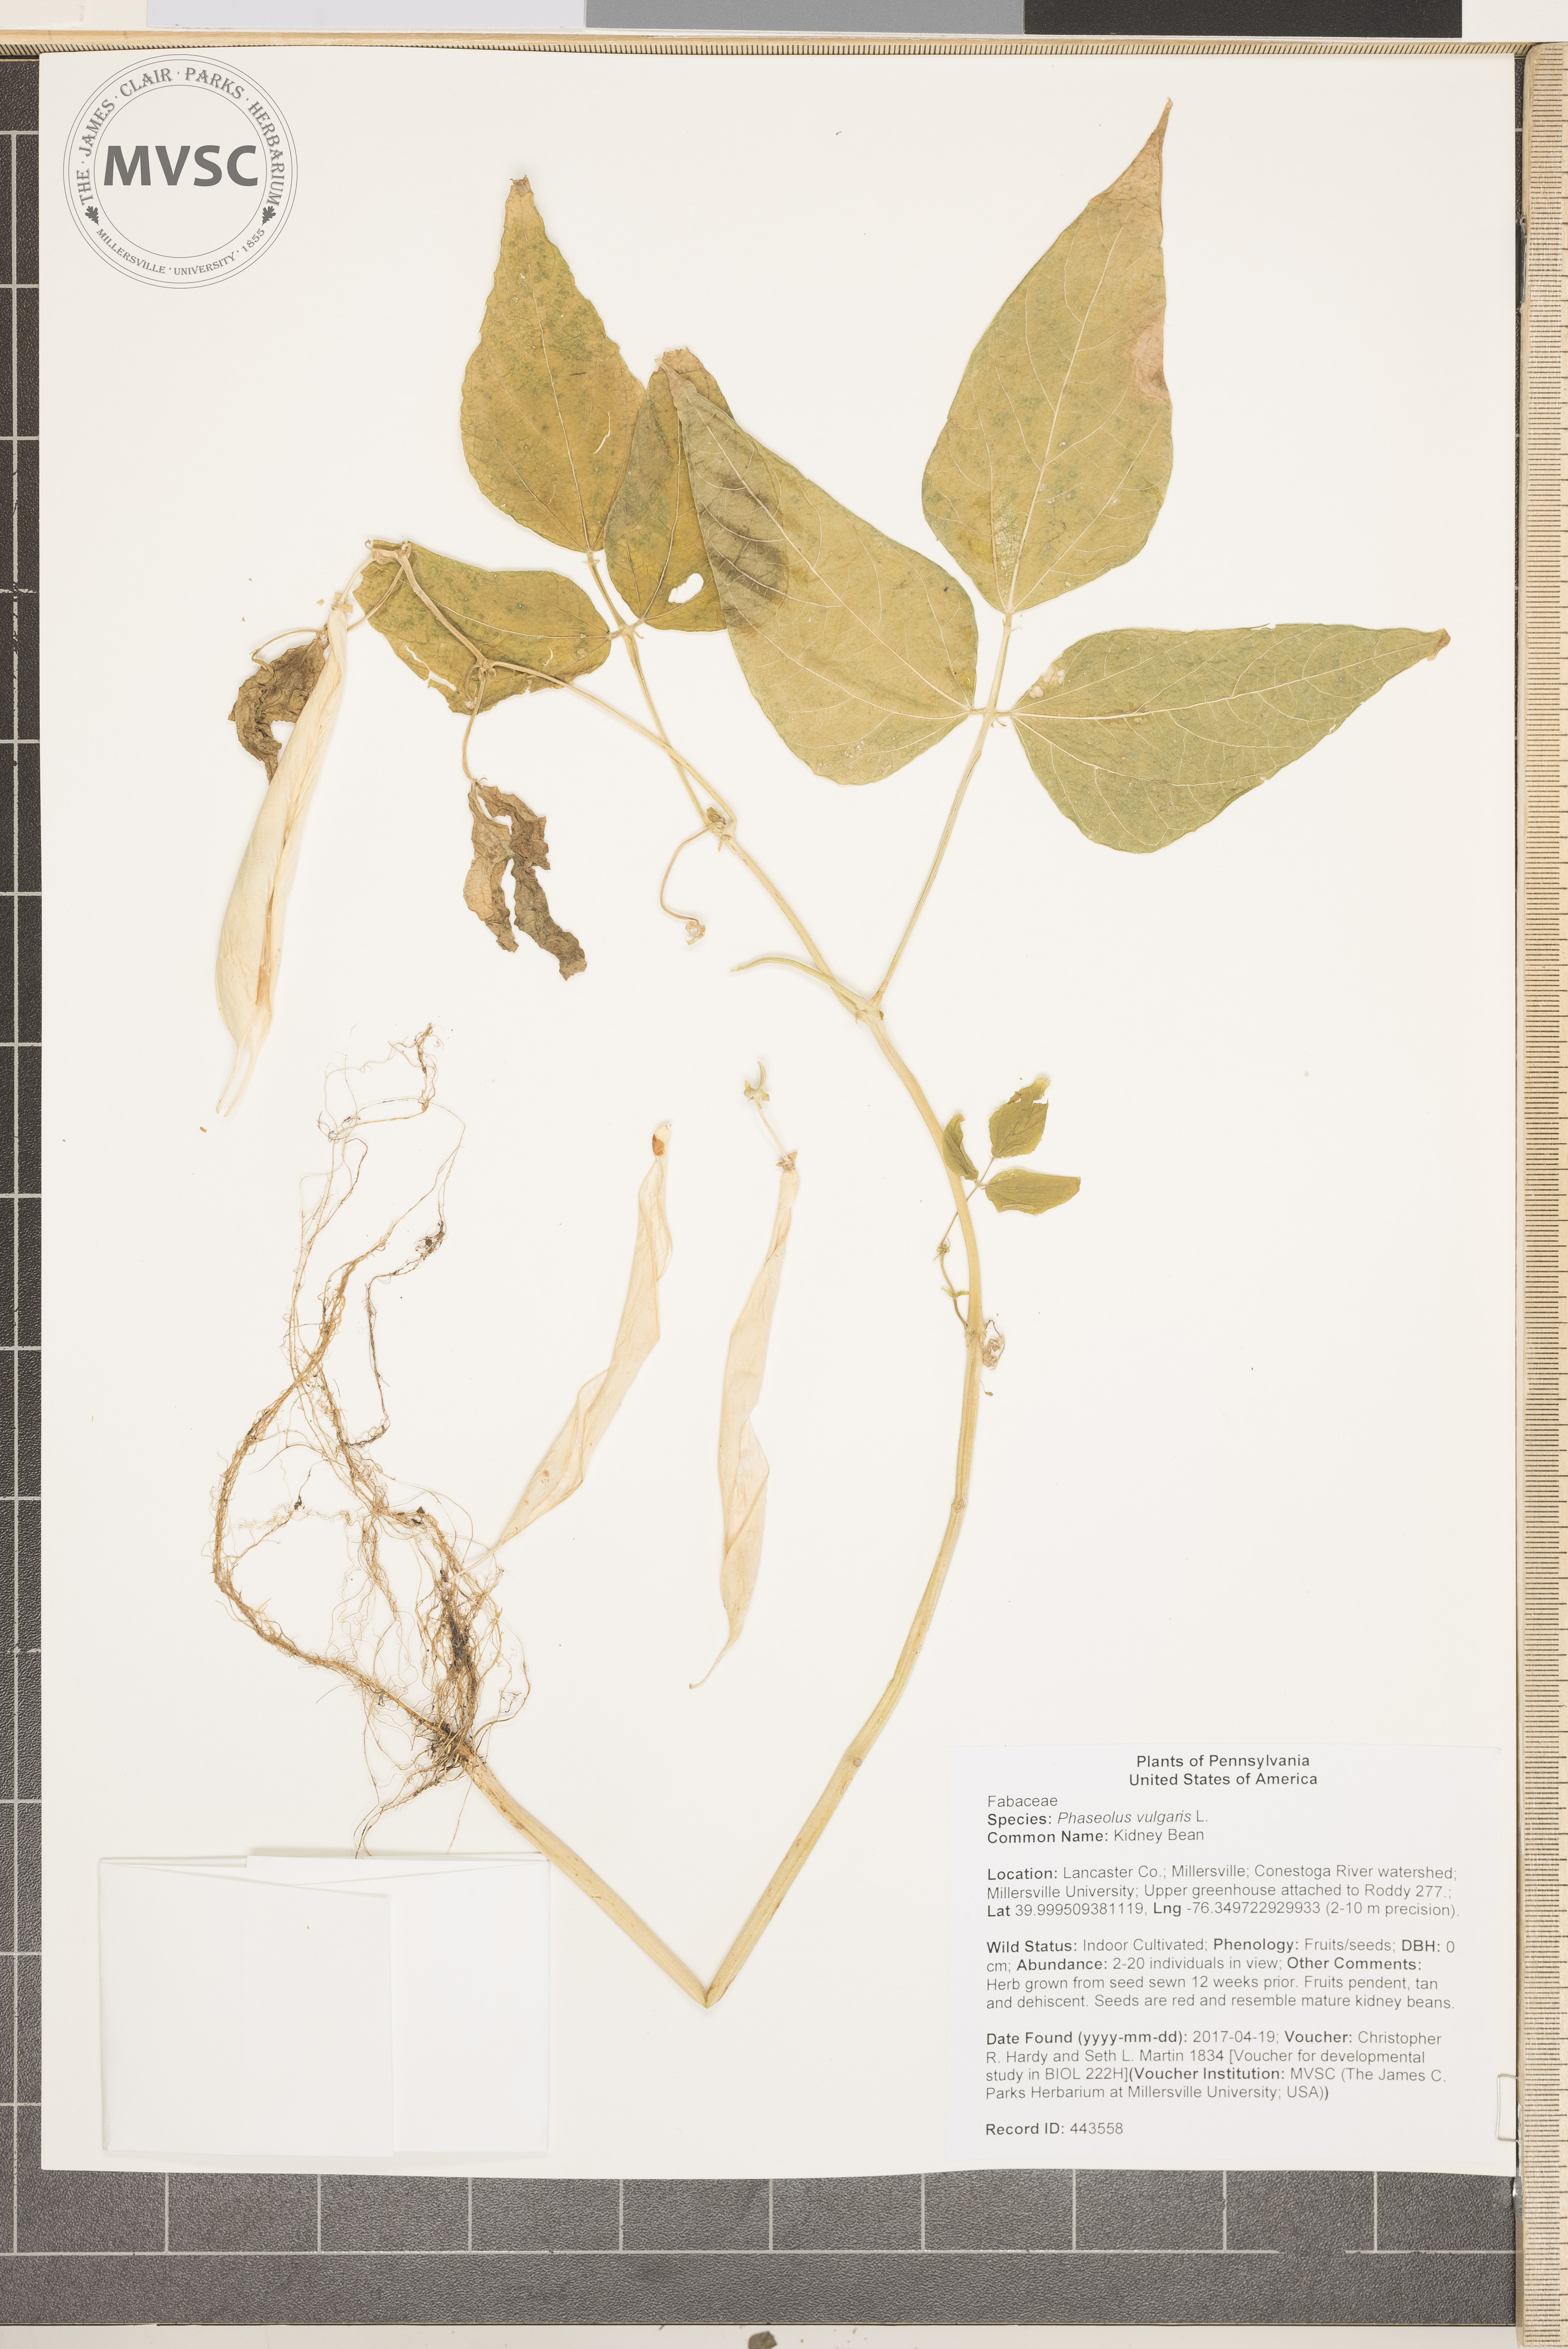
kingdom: Plantae
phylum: Tracheophyta
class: Magnoliopsida
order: Fabales
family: Fabaceae
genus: Phaseolus
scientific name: Phaseolus vulgaris
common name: Kidney Bean
